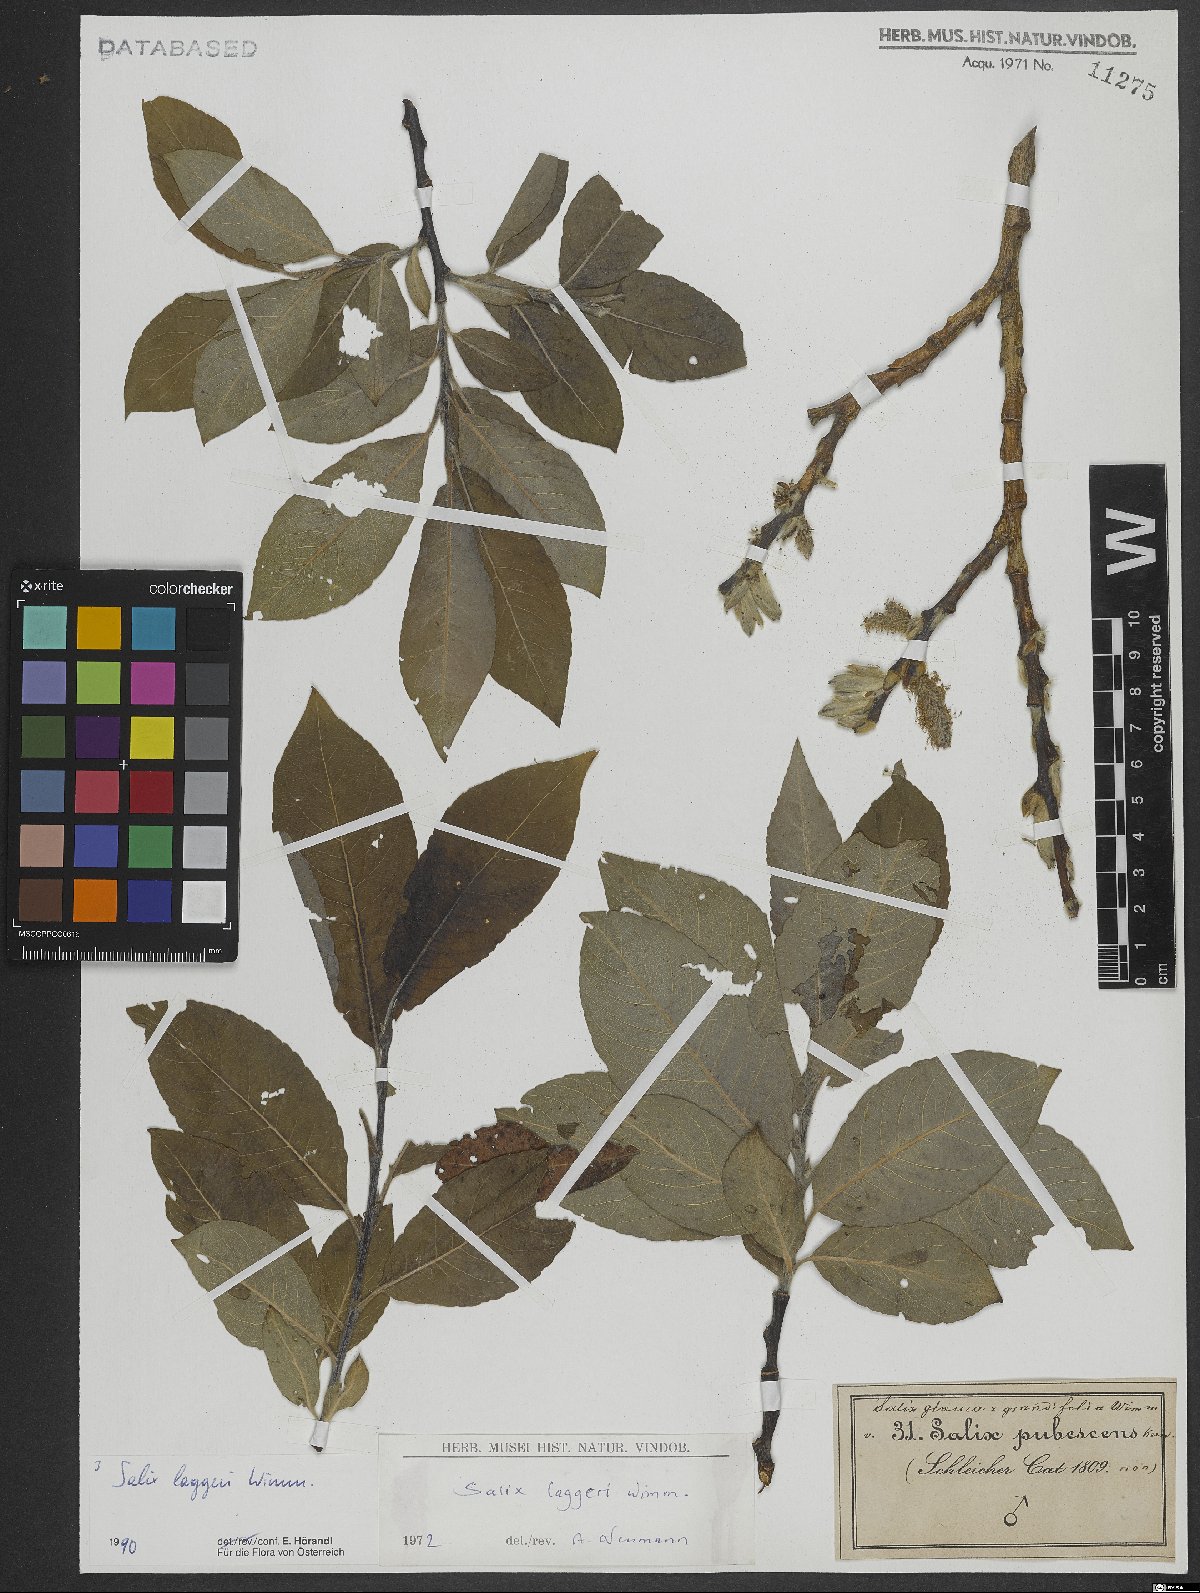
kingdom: Plantae
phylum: Tracheophyta
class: Magnoliopsida
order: Malpighiales
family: Salicaceae
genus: Salix
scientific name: Salix laggeri
